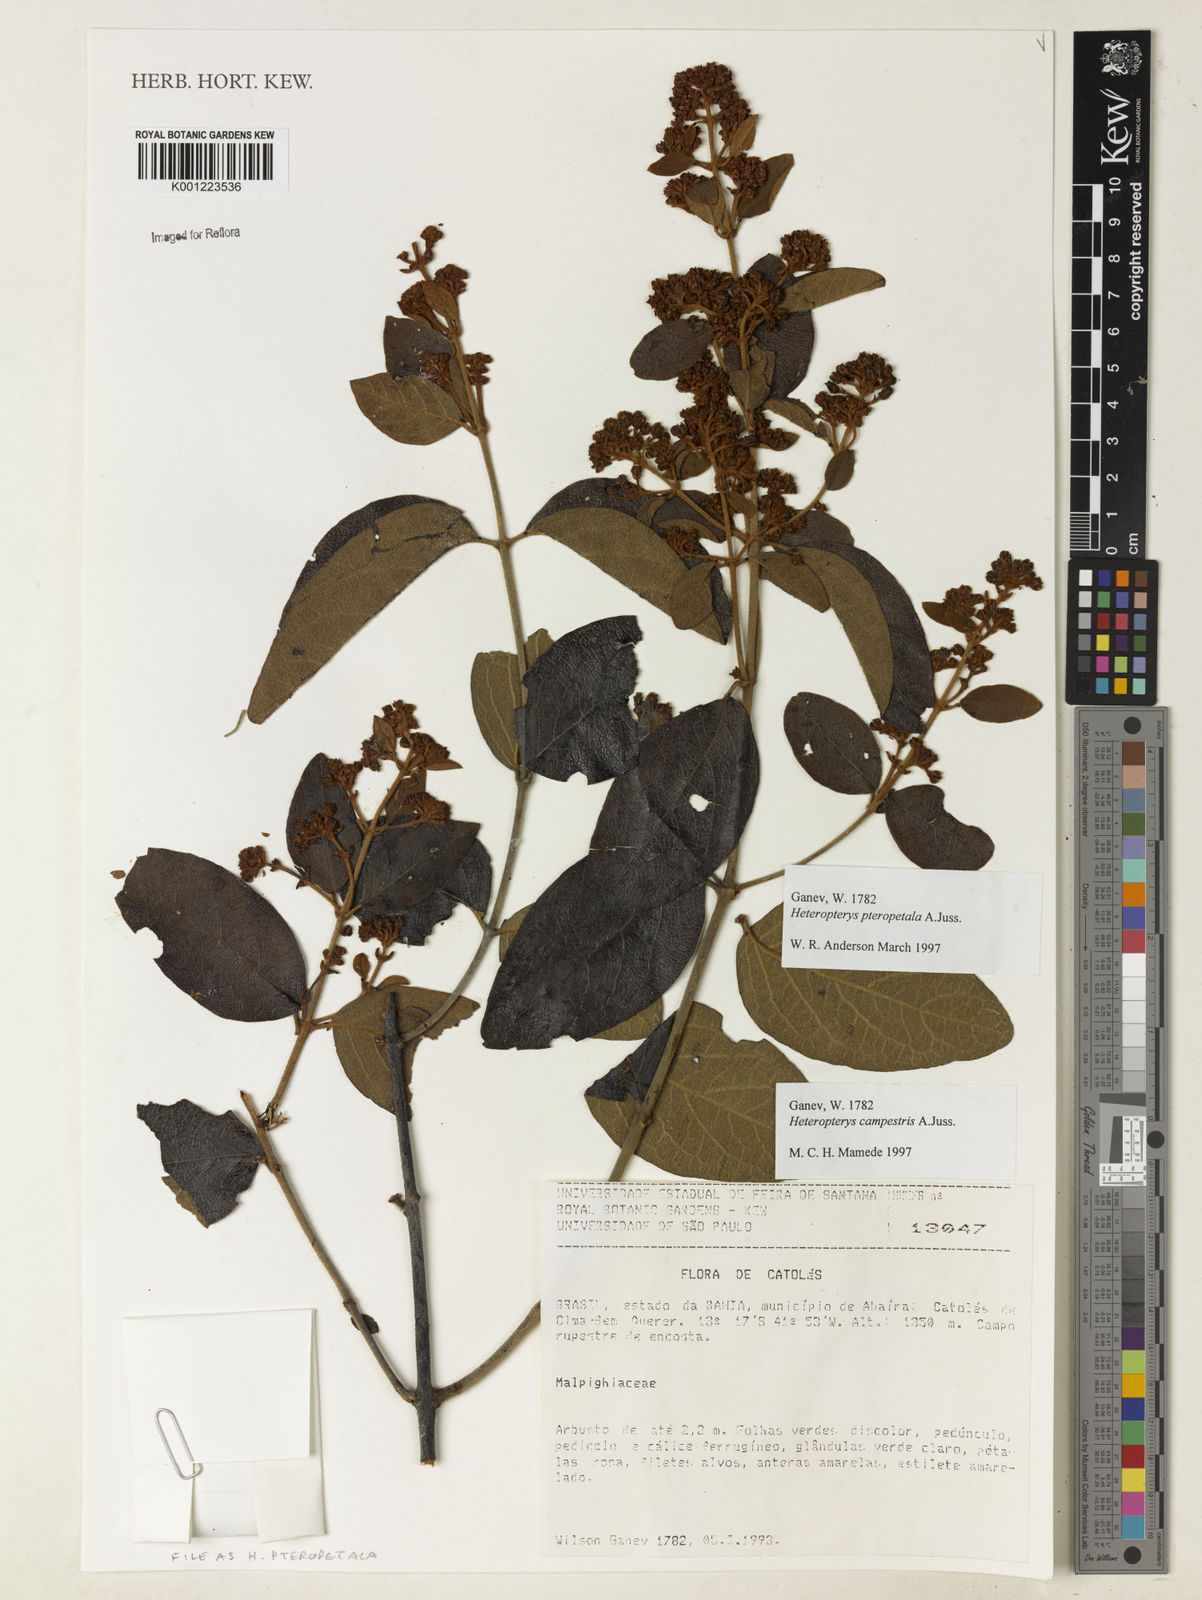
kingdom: Plantae
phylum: Tracheophyta
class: Magnoliopsida
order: Malpighiales
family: Malpighiaceae
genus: Heteropterys
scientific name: Heteropterys pteropetala
